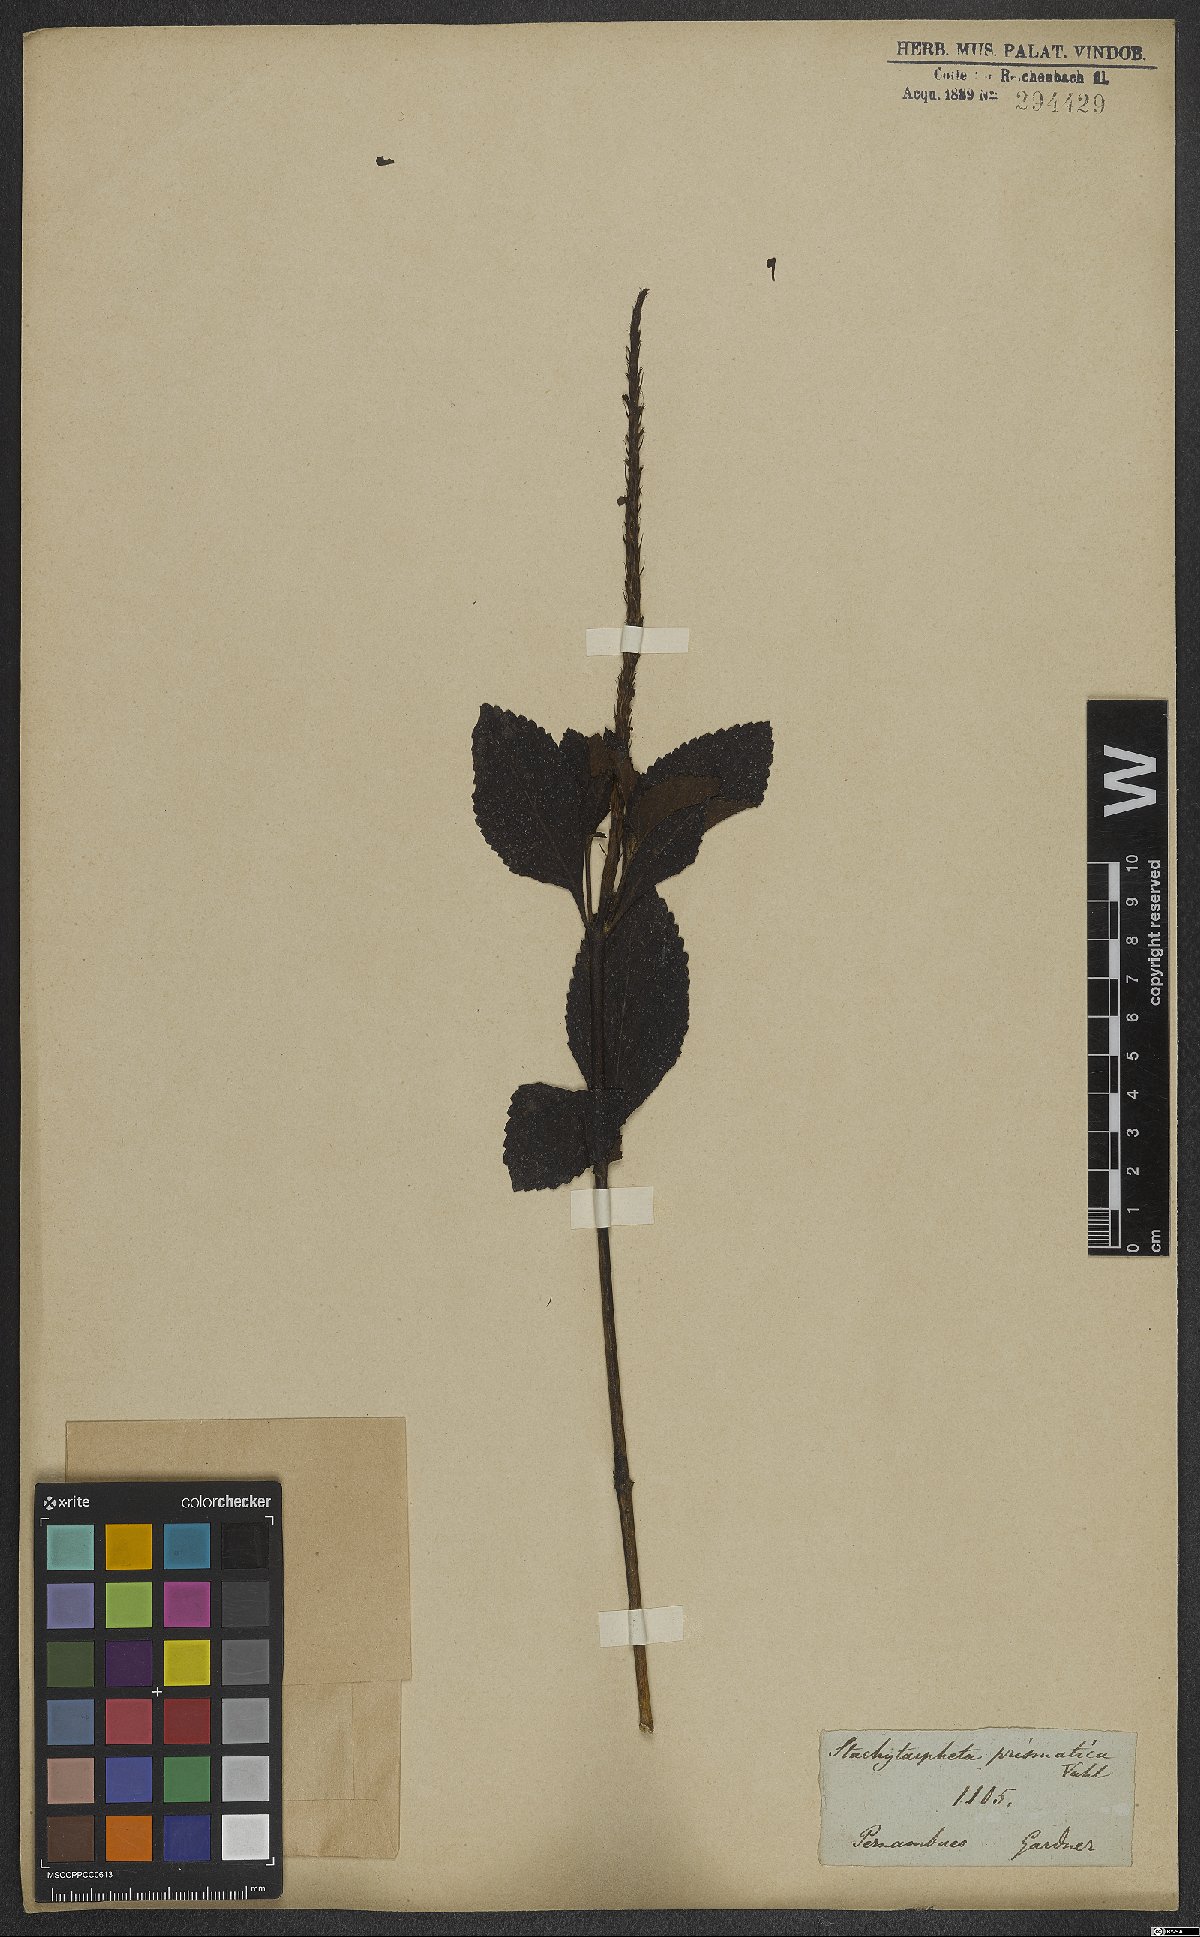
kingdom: Plantae
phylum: Tracheophyta
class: Magnoliopsida
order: Lamiales
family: Verbenaceae
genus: Stachytarpheta
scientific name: Stachytarpheta jamaicensis
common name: Light-blue snakeweed
